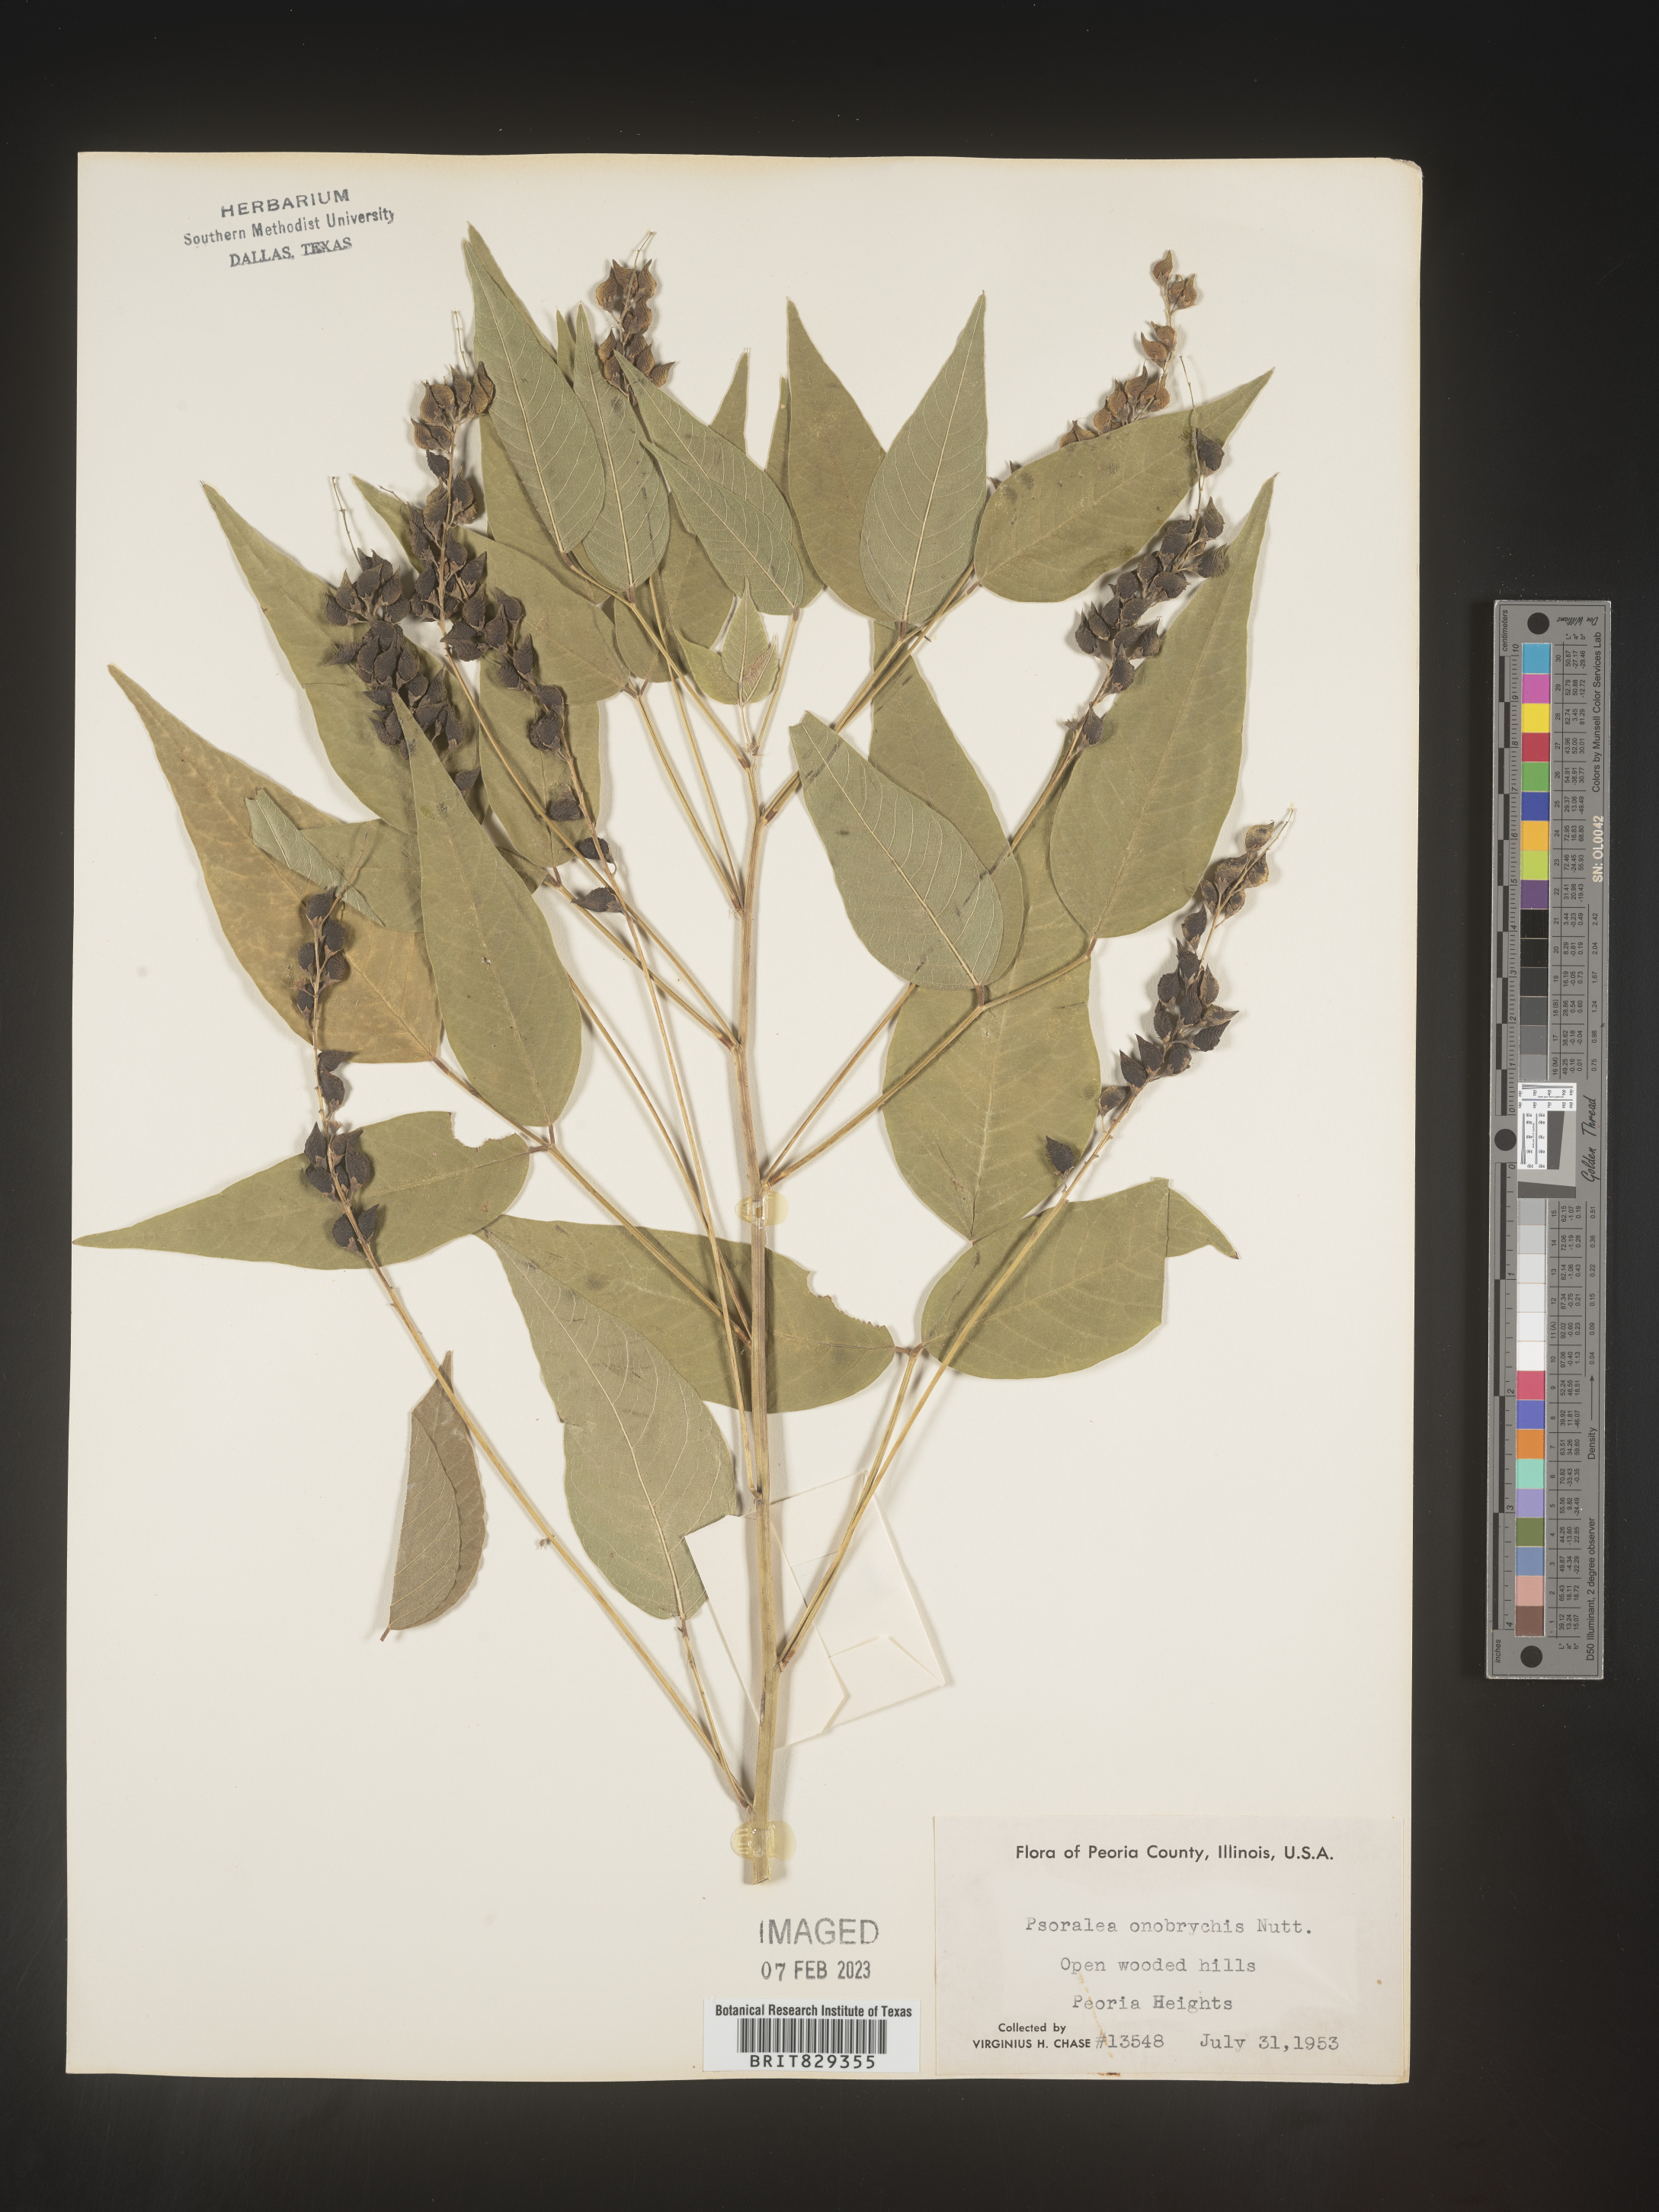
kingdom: Plantae
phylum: Tracheophyta
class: Magnoliopsida
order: Fabales
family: Fabaceae
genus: Psoralea
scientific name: Psoralea
